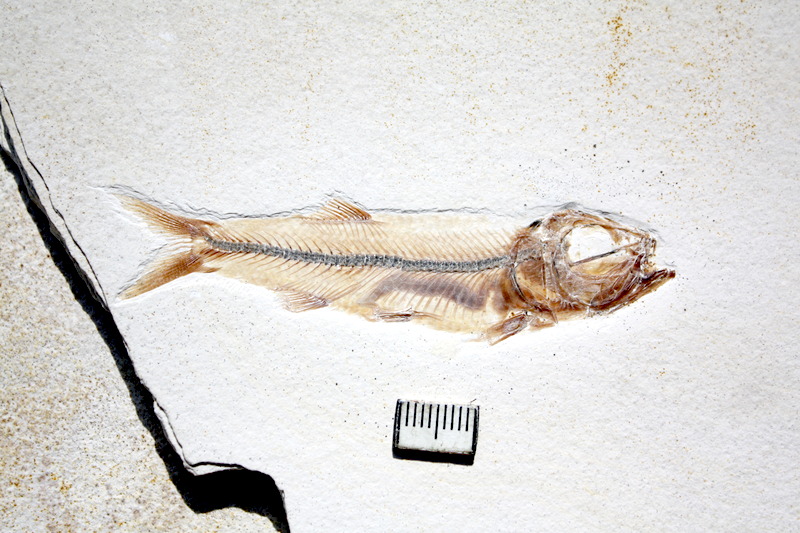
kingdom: Animalia
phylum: Chordata
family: Ascalaboidae
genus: Ebertichthys
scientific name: Ebertichthys ettlingensis
